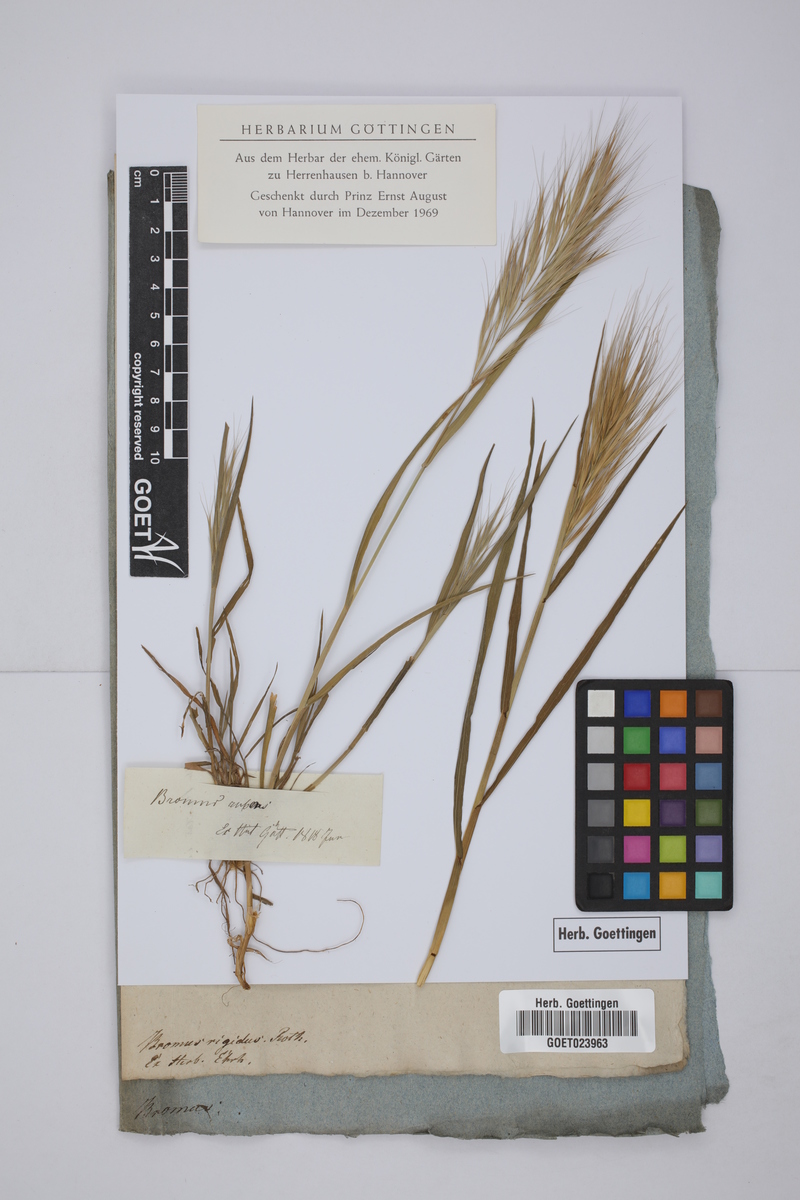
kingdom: Plantae
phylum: Tracheophyta
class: Liliopsida
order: Poales
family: Poaceae
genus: Bromus
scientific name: Bromus rubens
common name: Red brome
